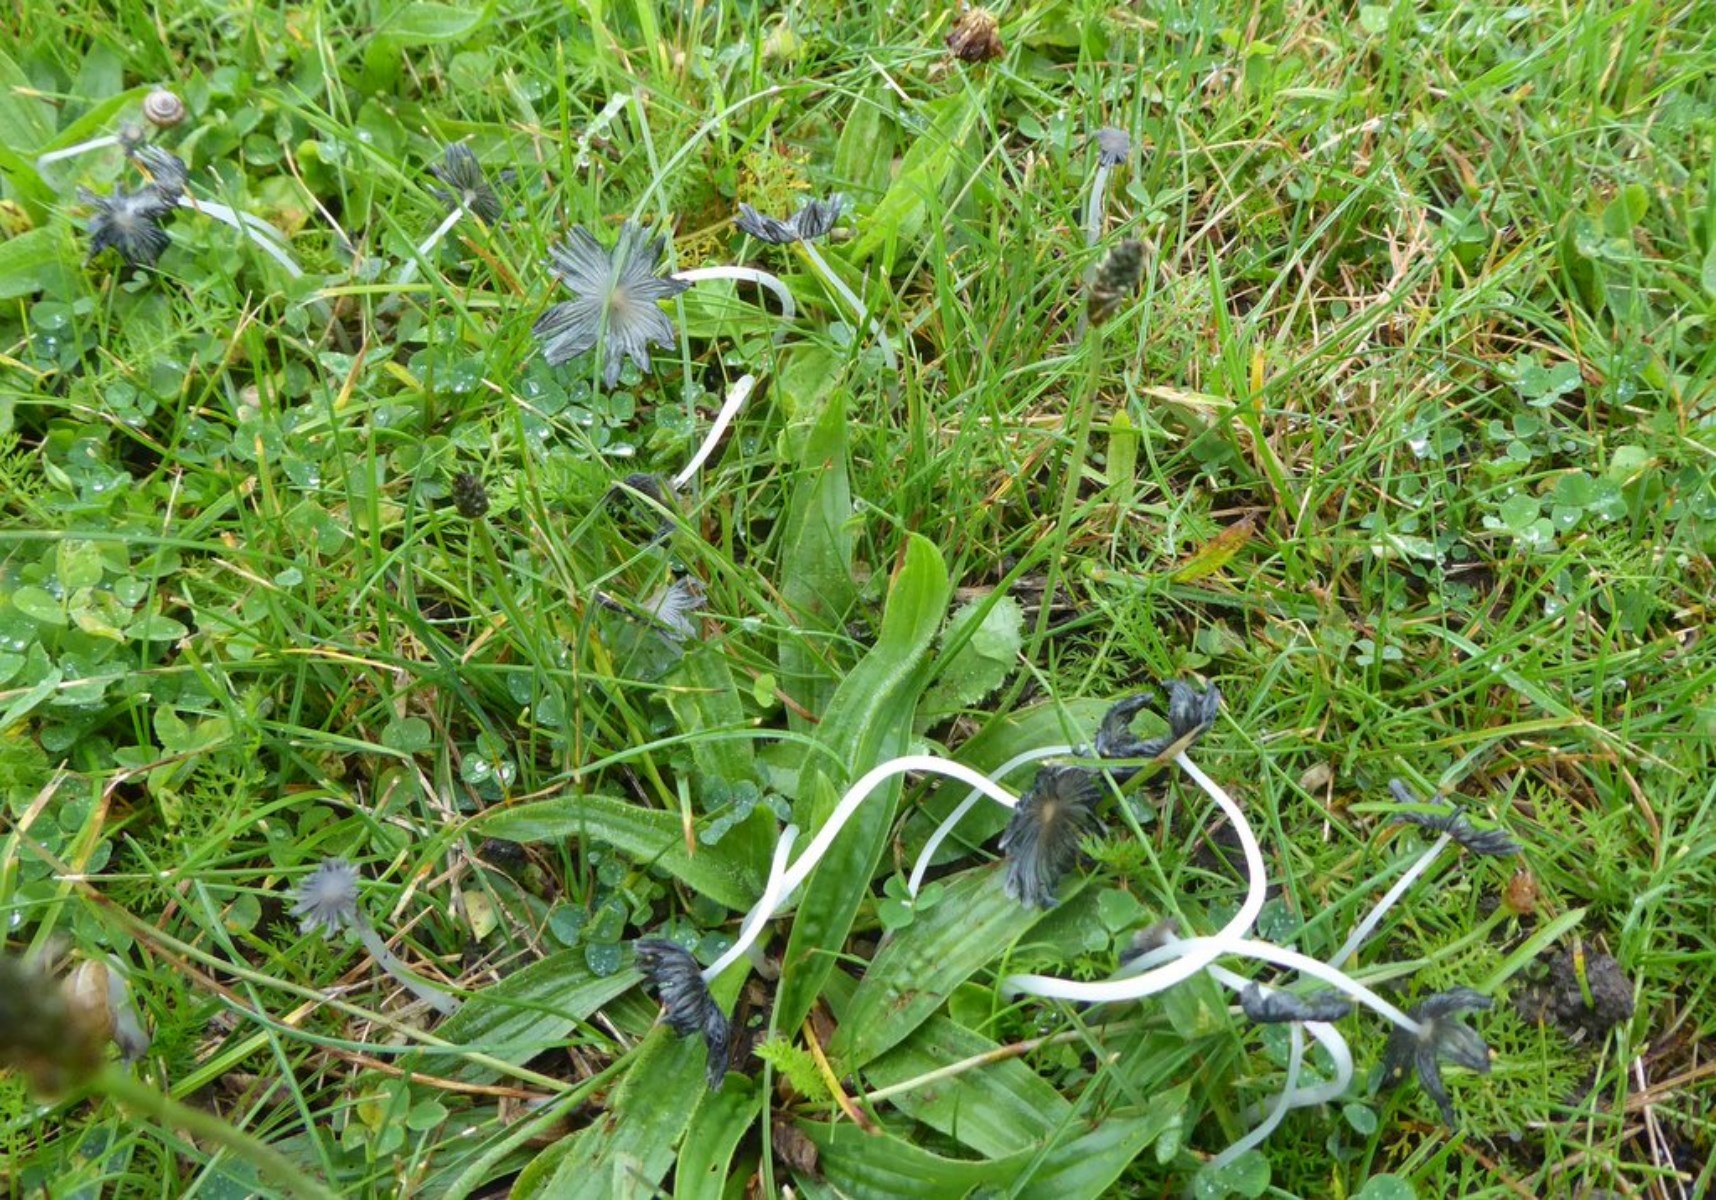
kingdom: Fungi
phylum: Basidiomycota
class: Agaricomycetes
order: Agaricales
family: Psathyrellaceae
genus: Coprinopsis
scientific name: Coprinopsis lagopus
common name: dunstokket blækhat
